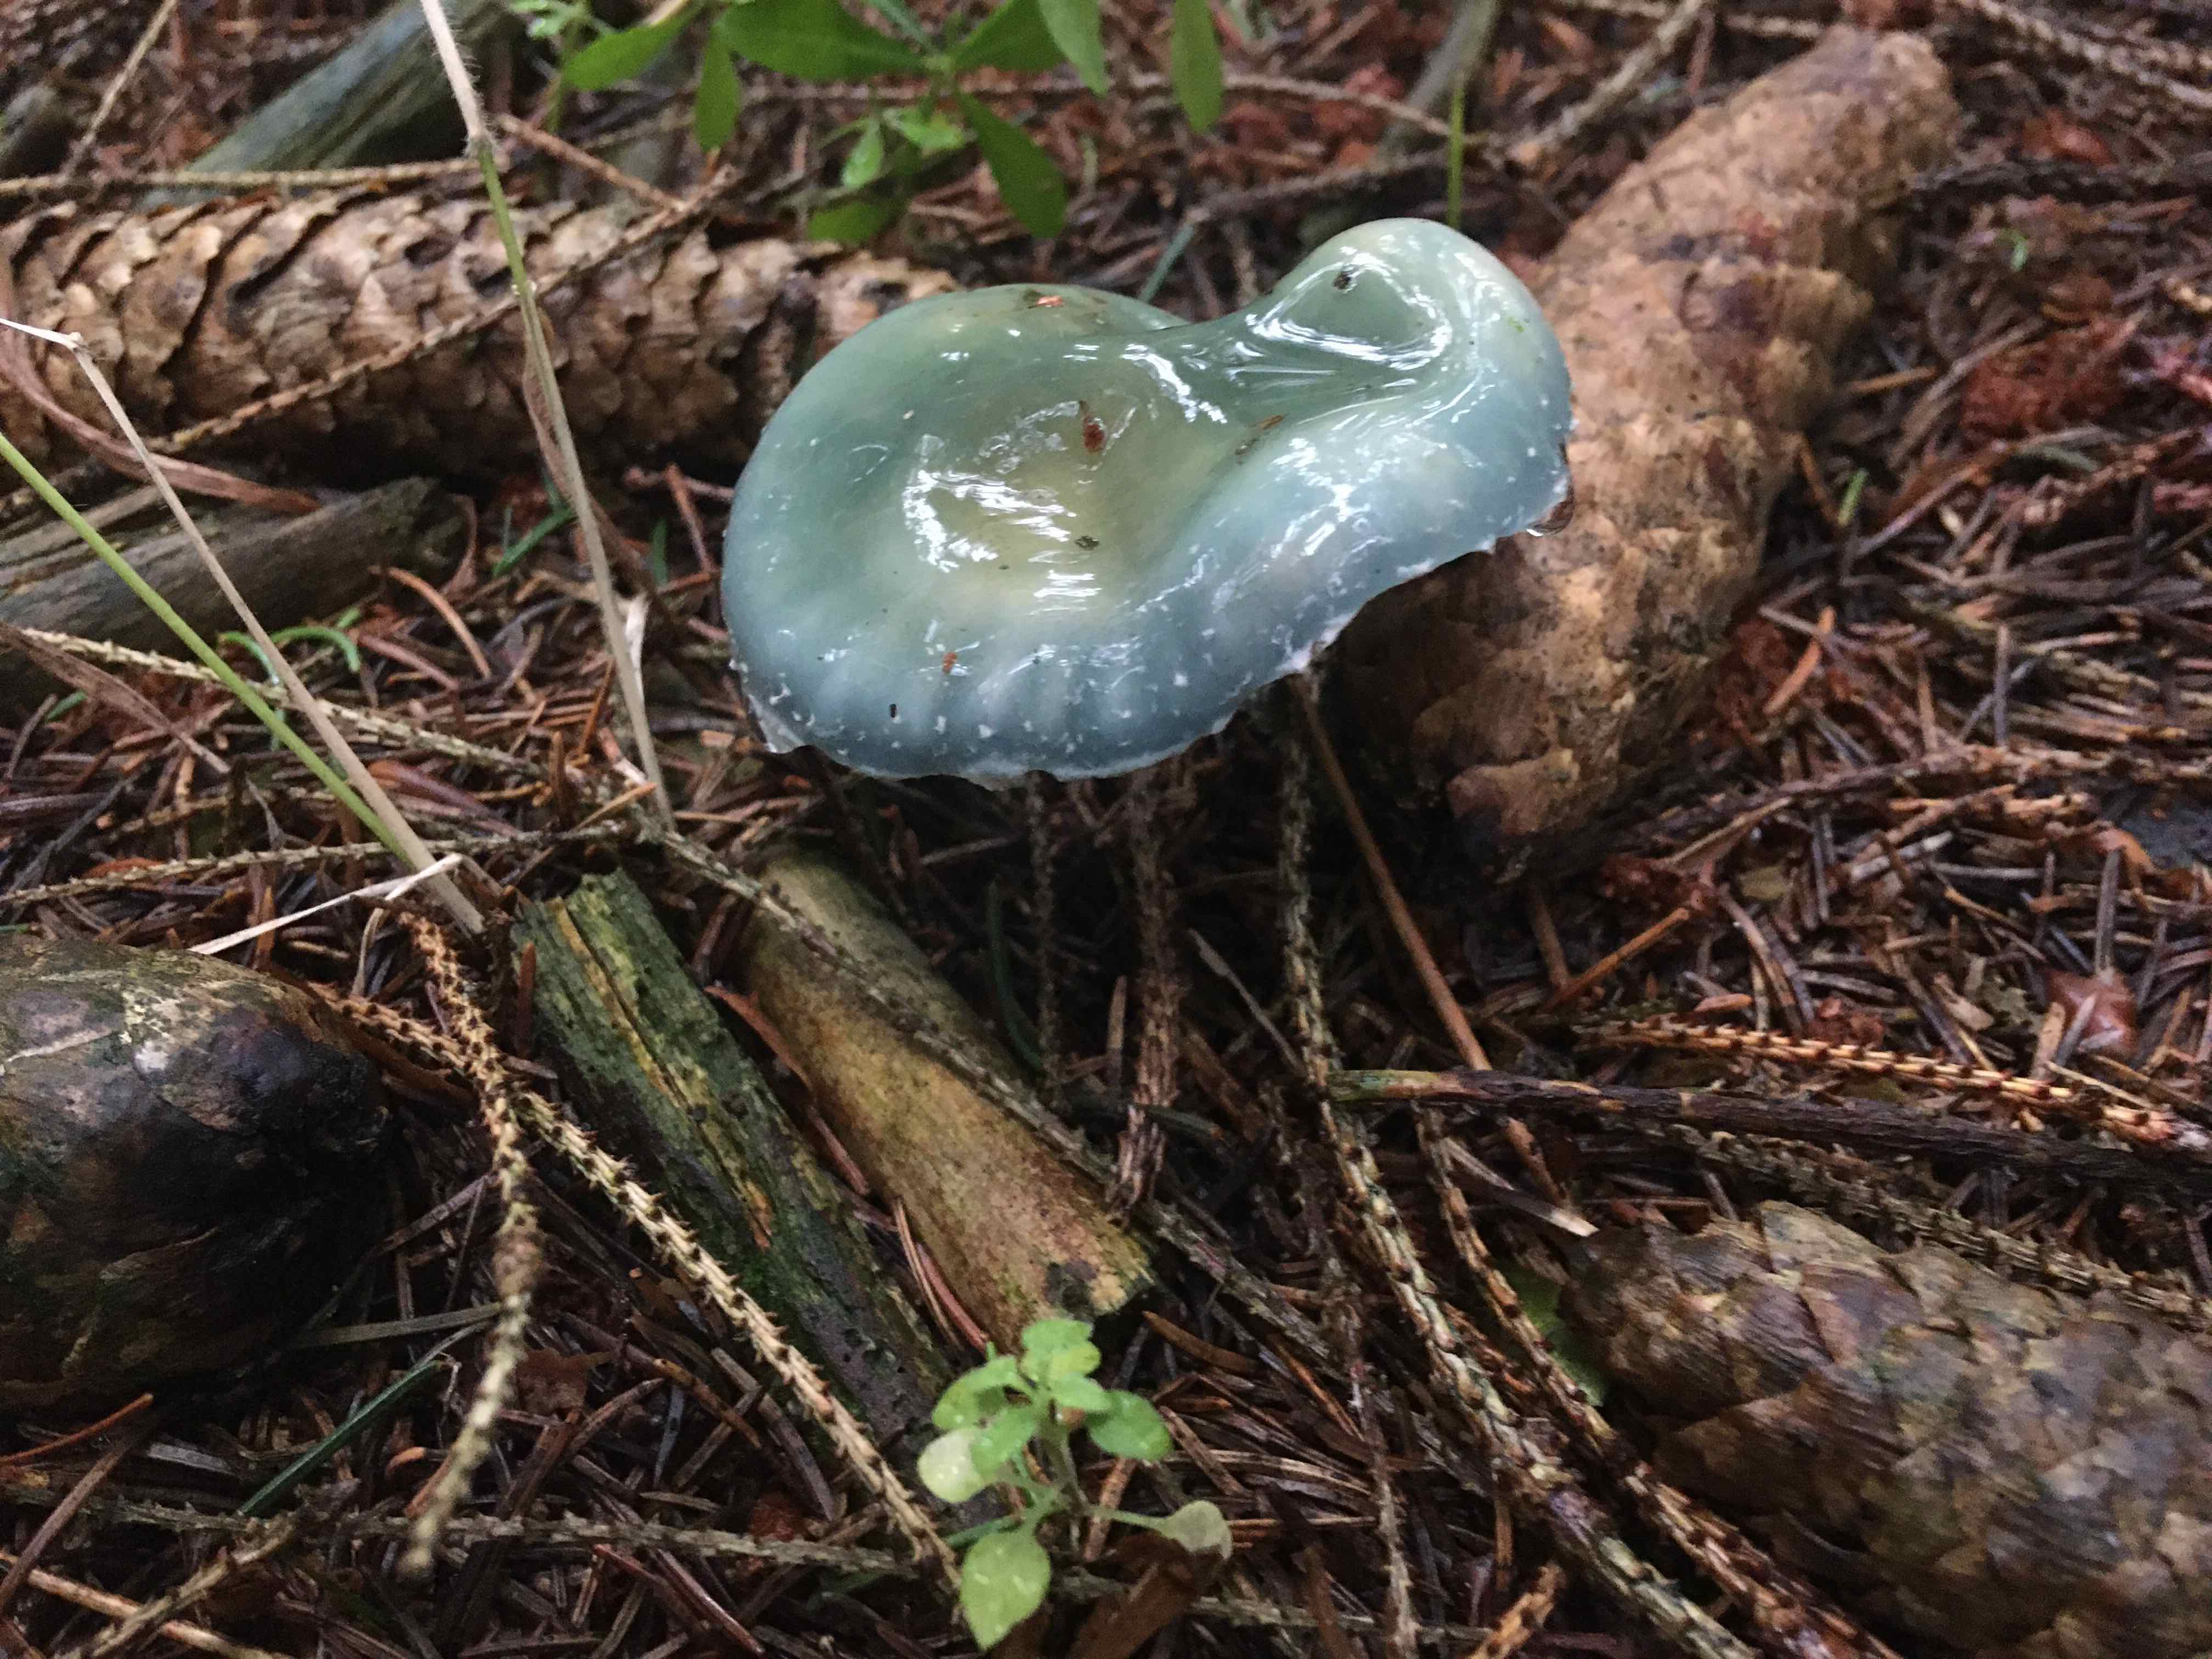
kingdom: Fungi
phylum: Basidiomycota
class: Agaricomycetes
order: Agaricales
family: Strophariaceae
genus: Stropharia
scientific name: Stropharia
